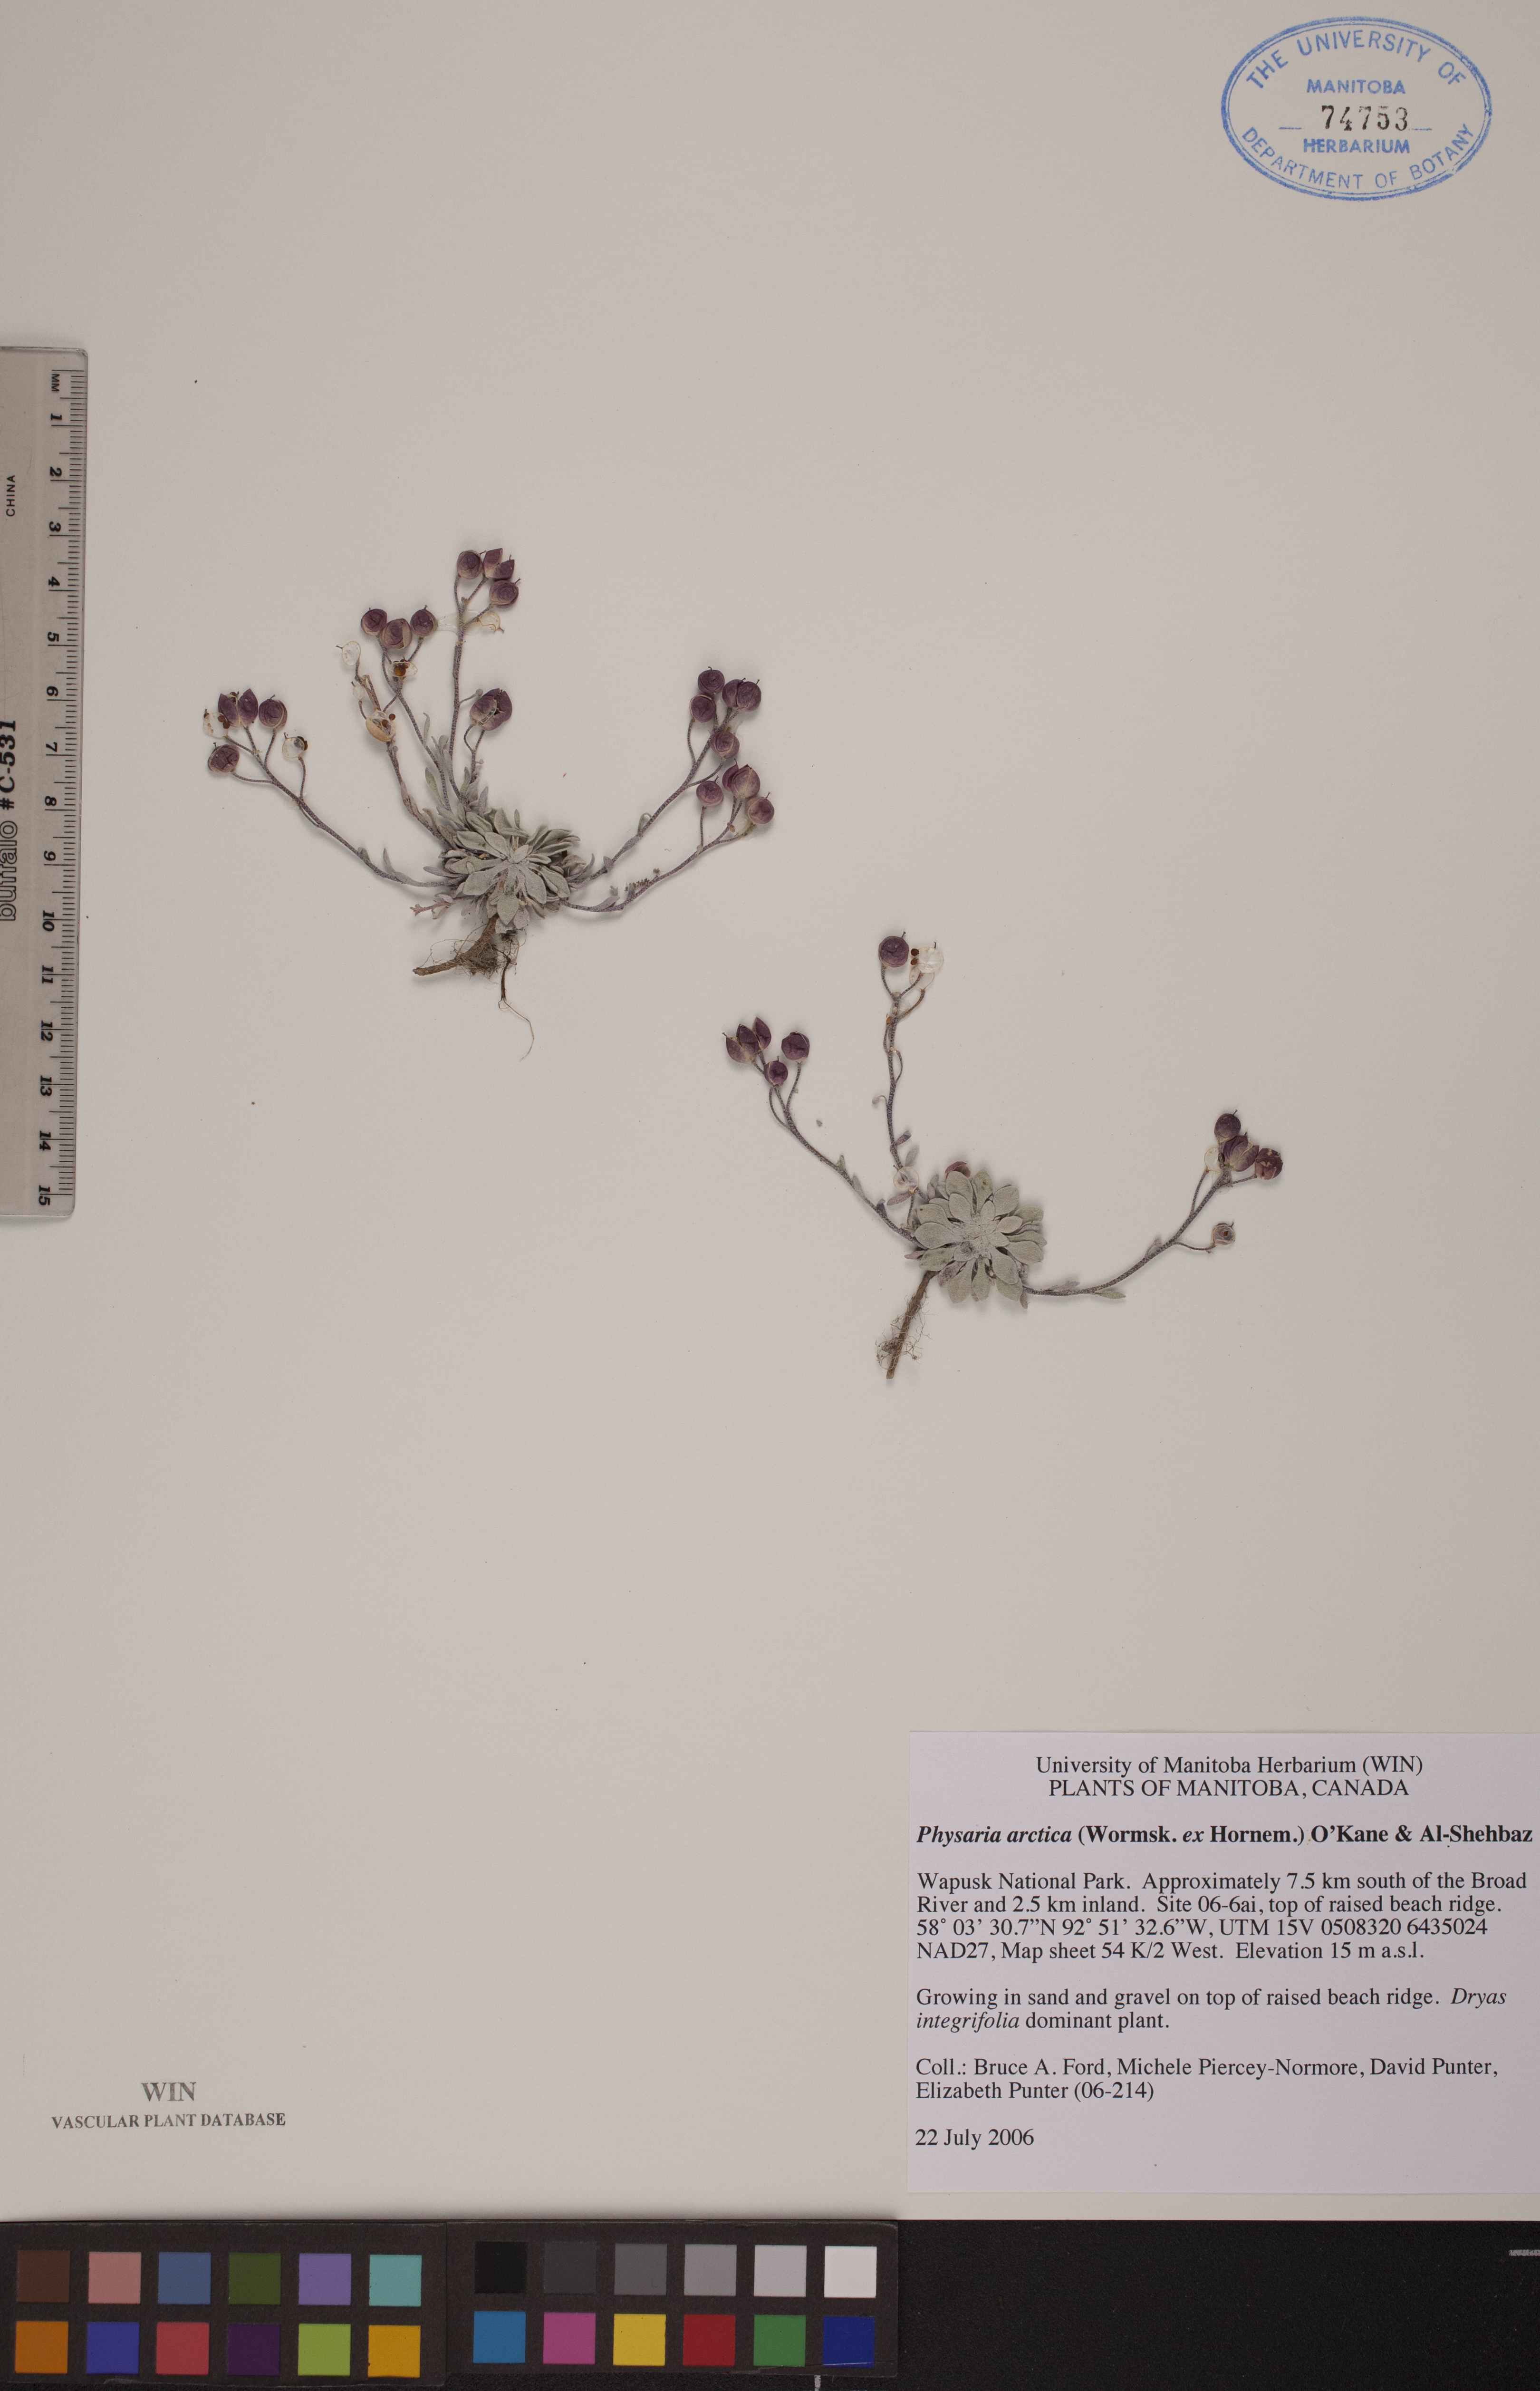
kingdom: Plantae
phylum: Tracheophyta
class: Magnoliopsida
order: Brassicales
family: Brassicaceae
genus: Physaria
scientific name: Physaria arctica
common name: Arctic bladderpod
